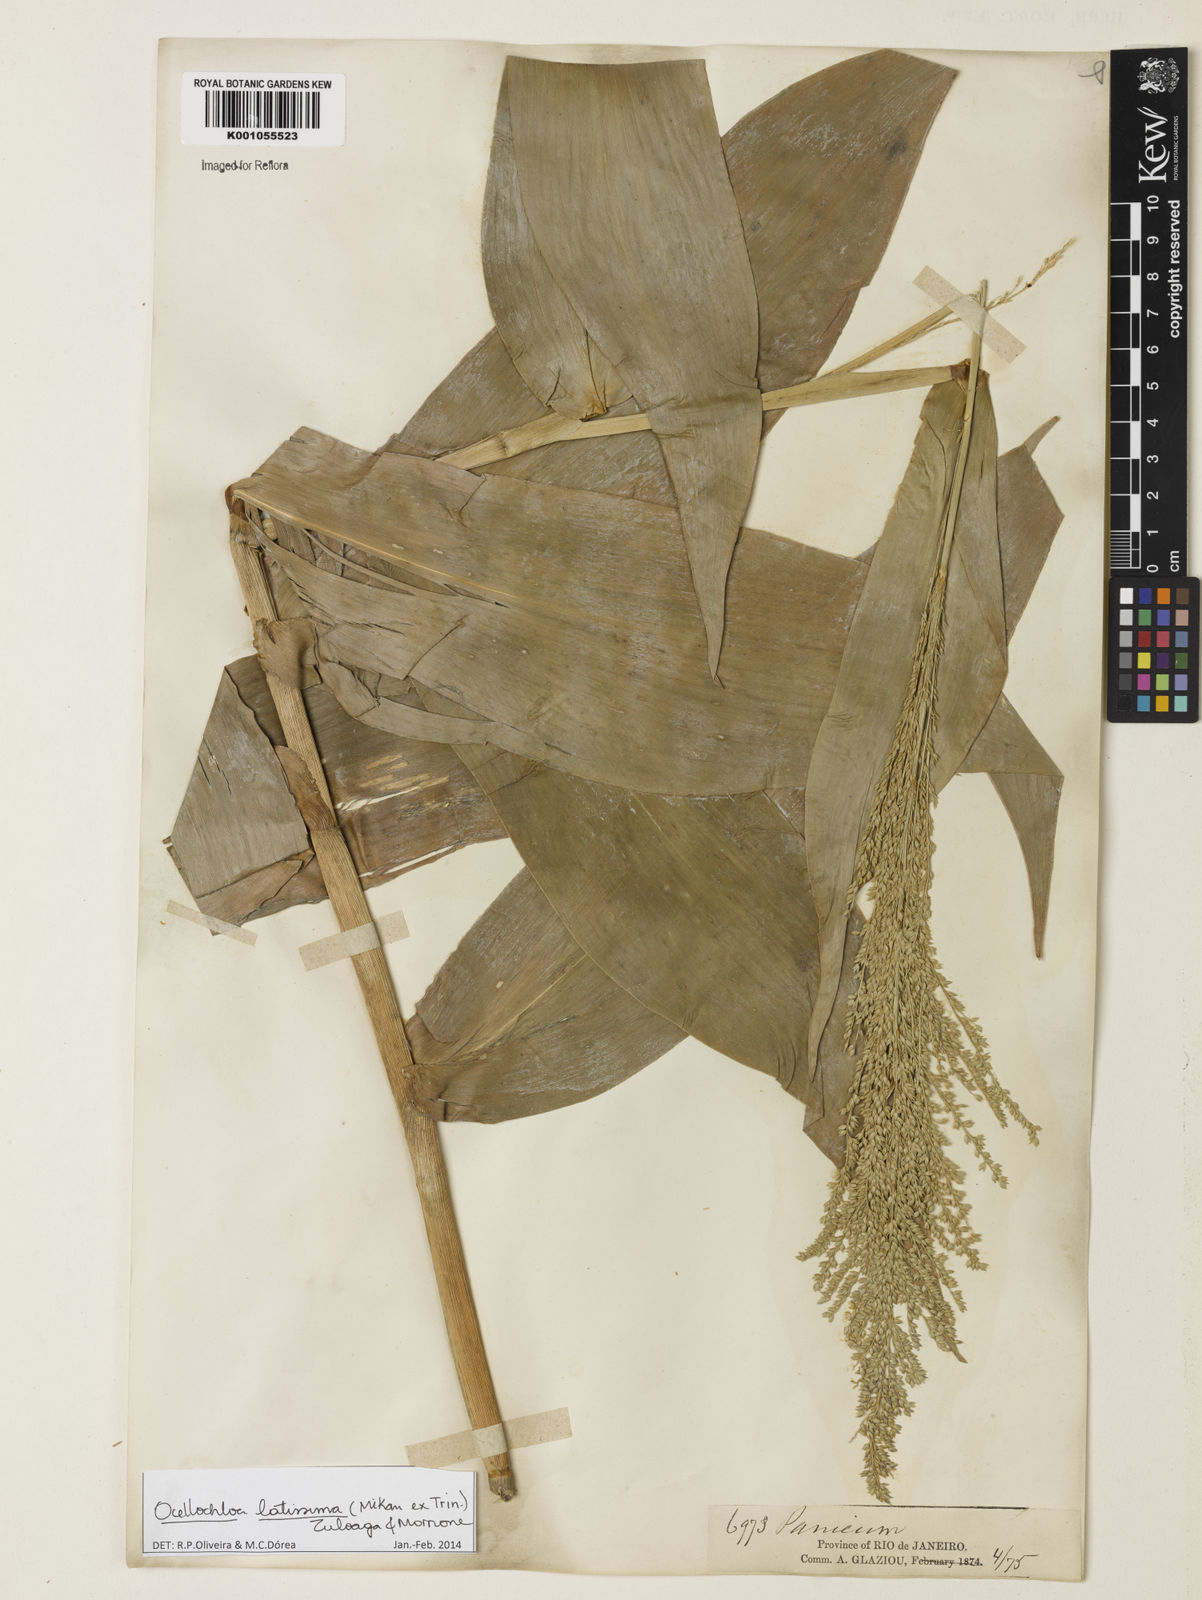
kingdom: Plantae
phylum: Tracheophyta
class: Liliopsida
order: Poales
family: Poaceae
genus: Ocellochloa
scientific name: Ocellochloa latissima
